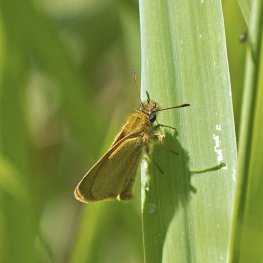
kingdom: Animalia
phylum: Arthropoda
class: Insecta
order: Lepidoptera
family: Hesperiidae
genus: Thymelicus
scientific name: Thymelicus lineola
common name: European Skipper
